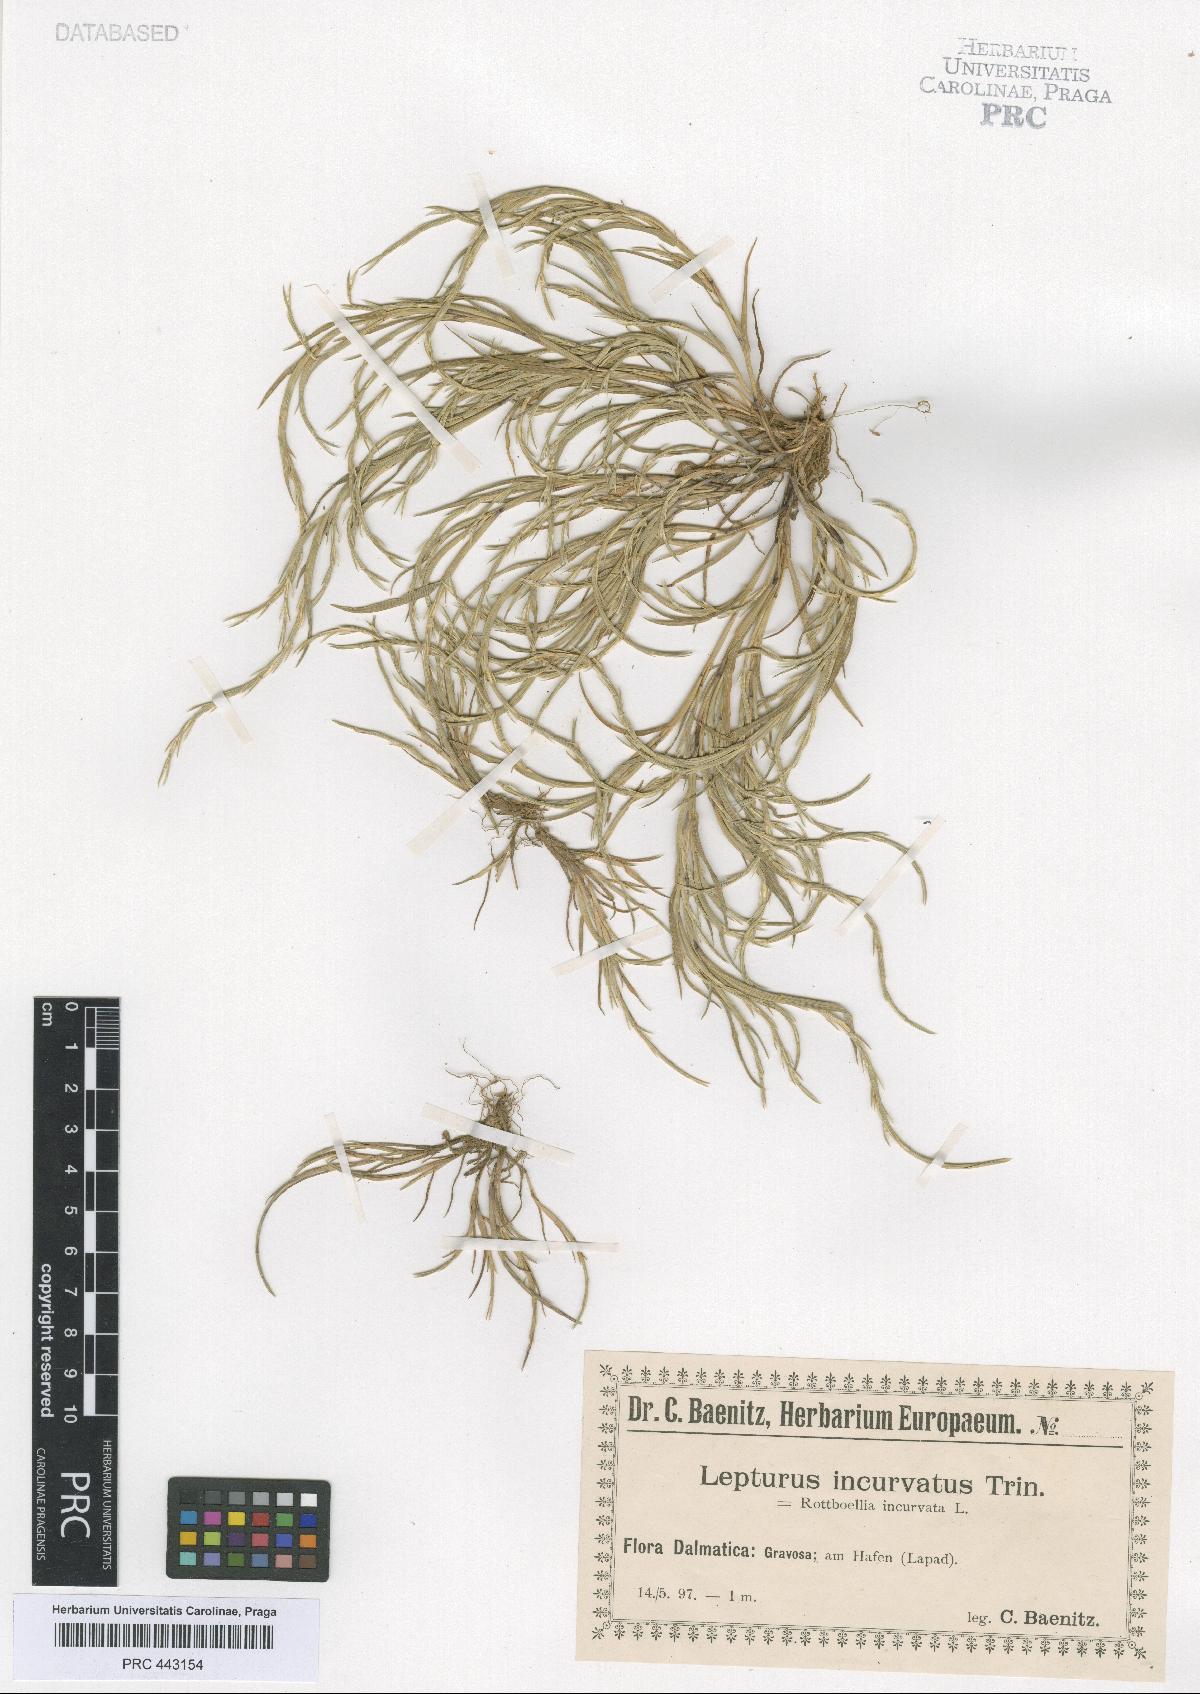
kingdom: Plantae
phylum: Tracheophyta
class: Liliopsida
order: Poales
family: Poaceae
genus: Parapholis
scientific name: Parapholis incurva
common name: Curved sicklegrass
